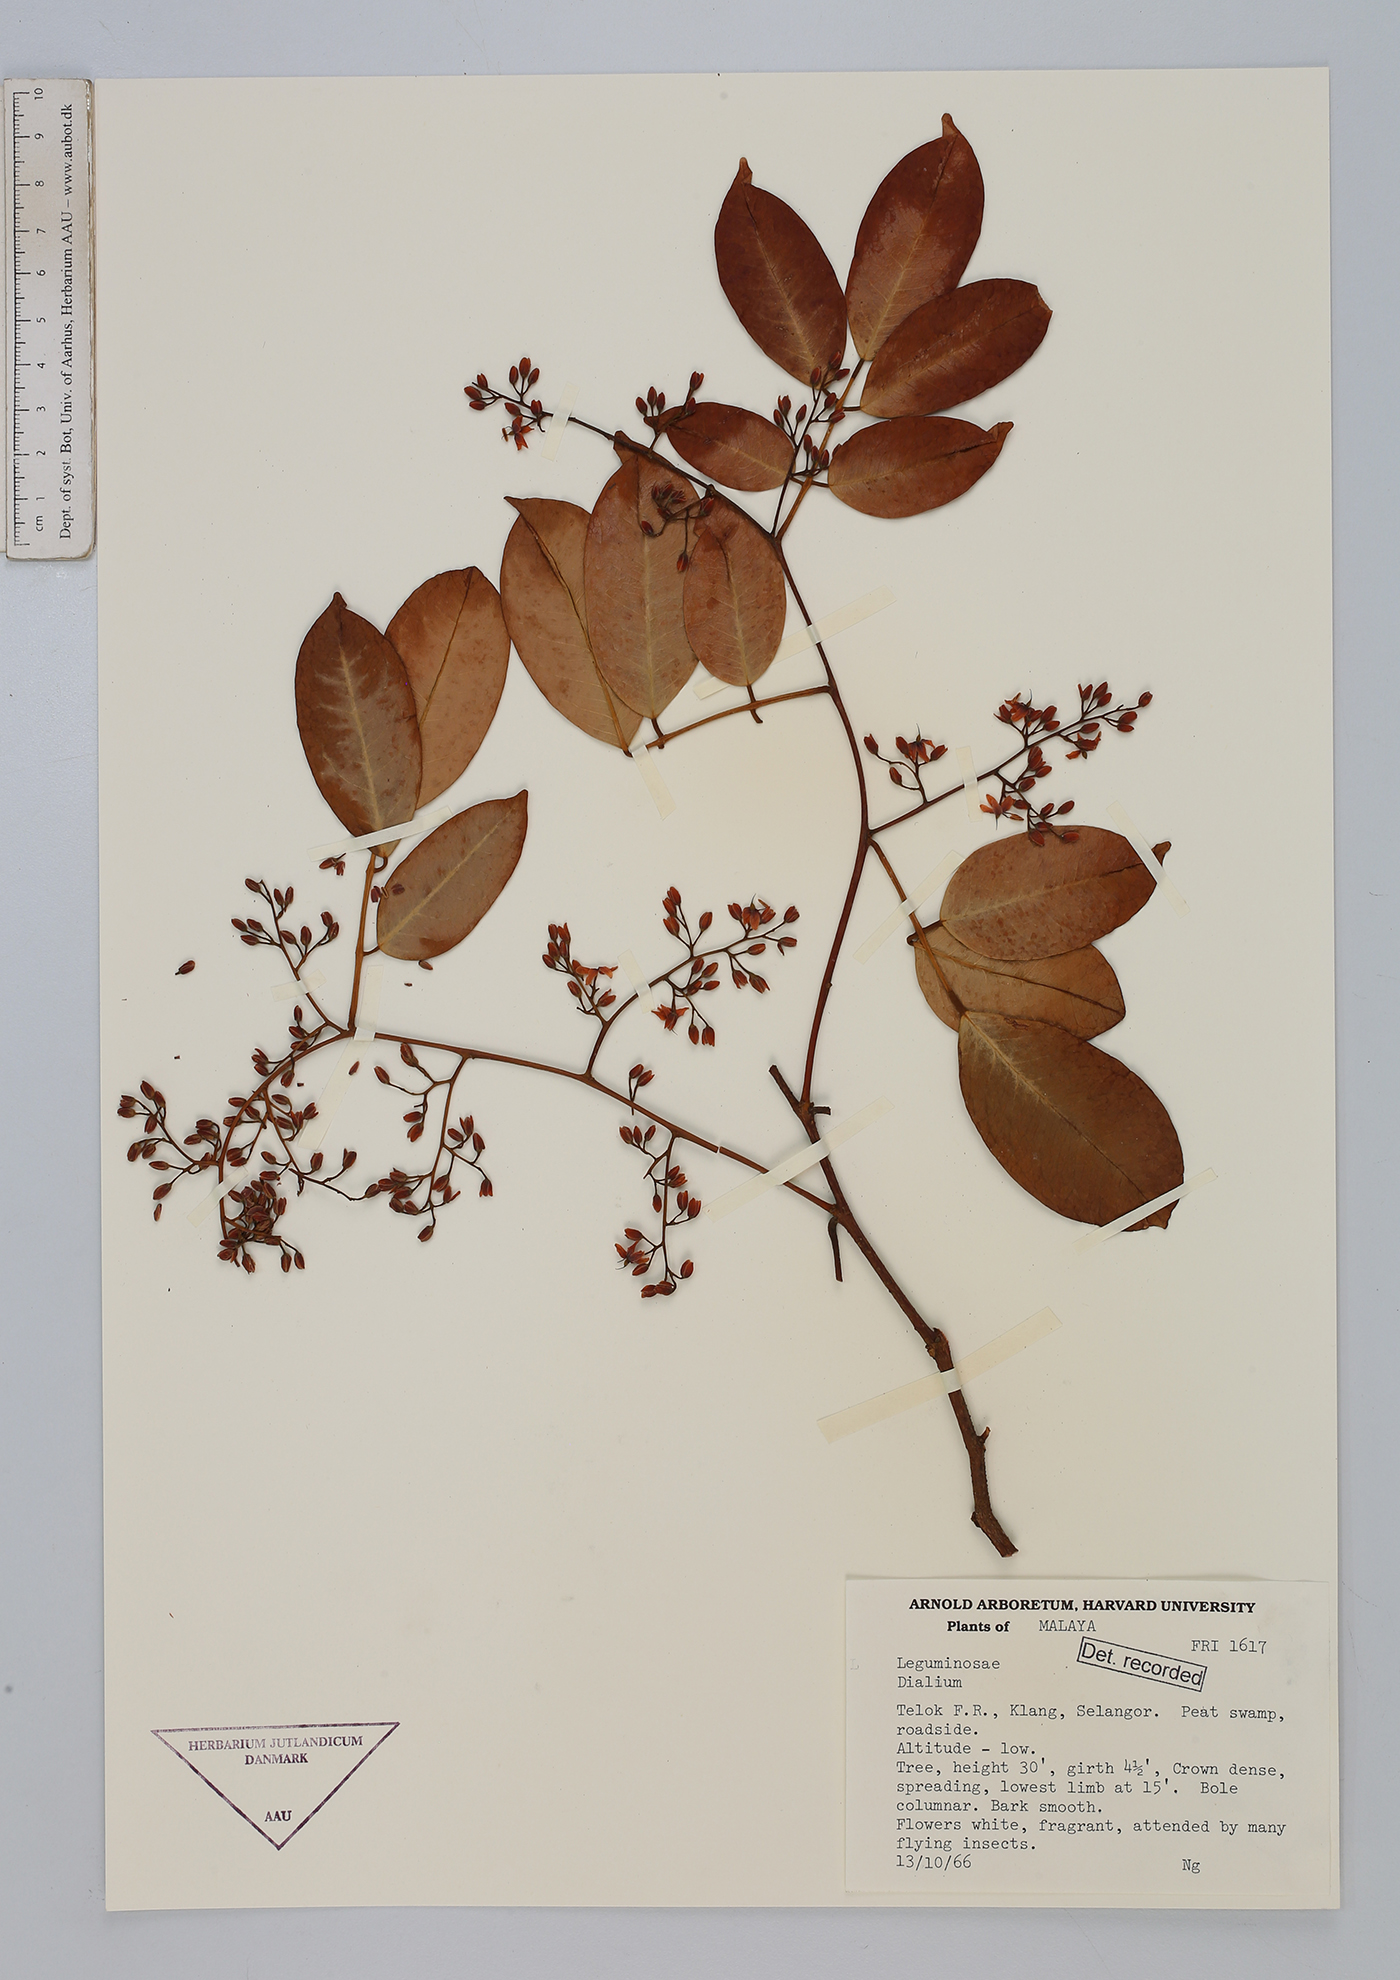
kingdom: Plantae
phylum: Tracheophyta
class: Magnoliopsida
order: Fabales
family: Fabaceae
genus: Dialium
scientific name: Dialium
